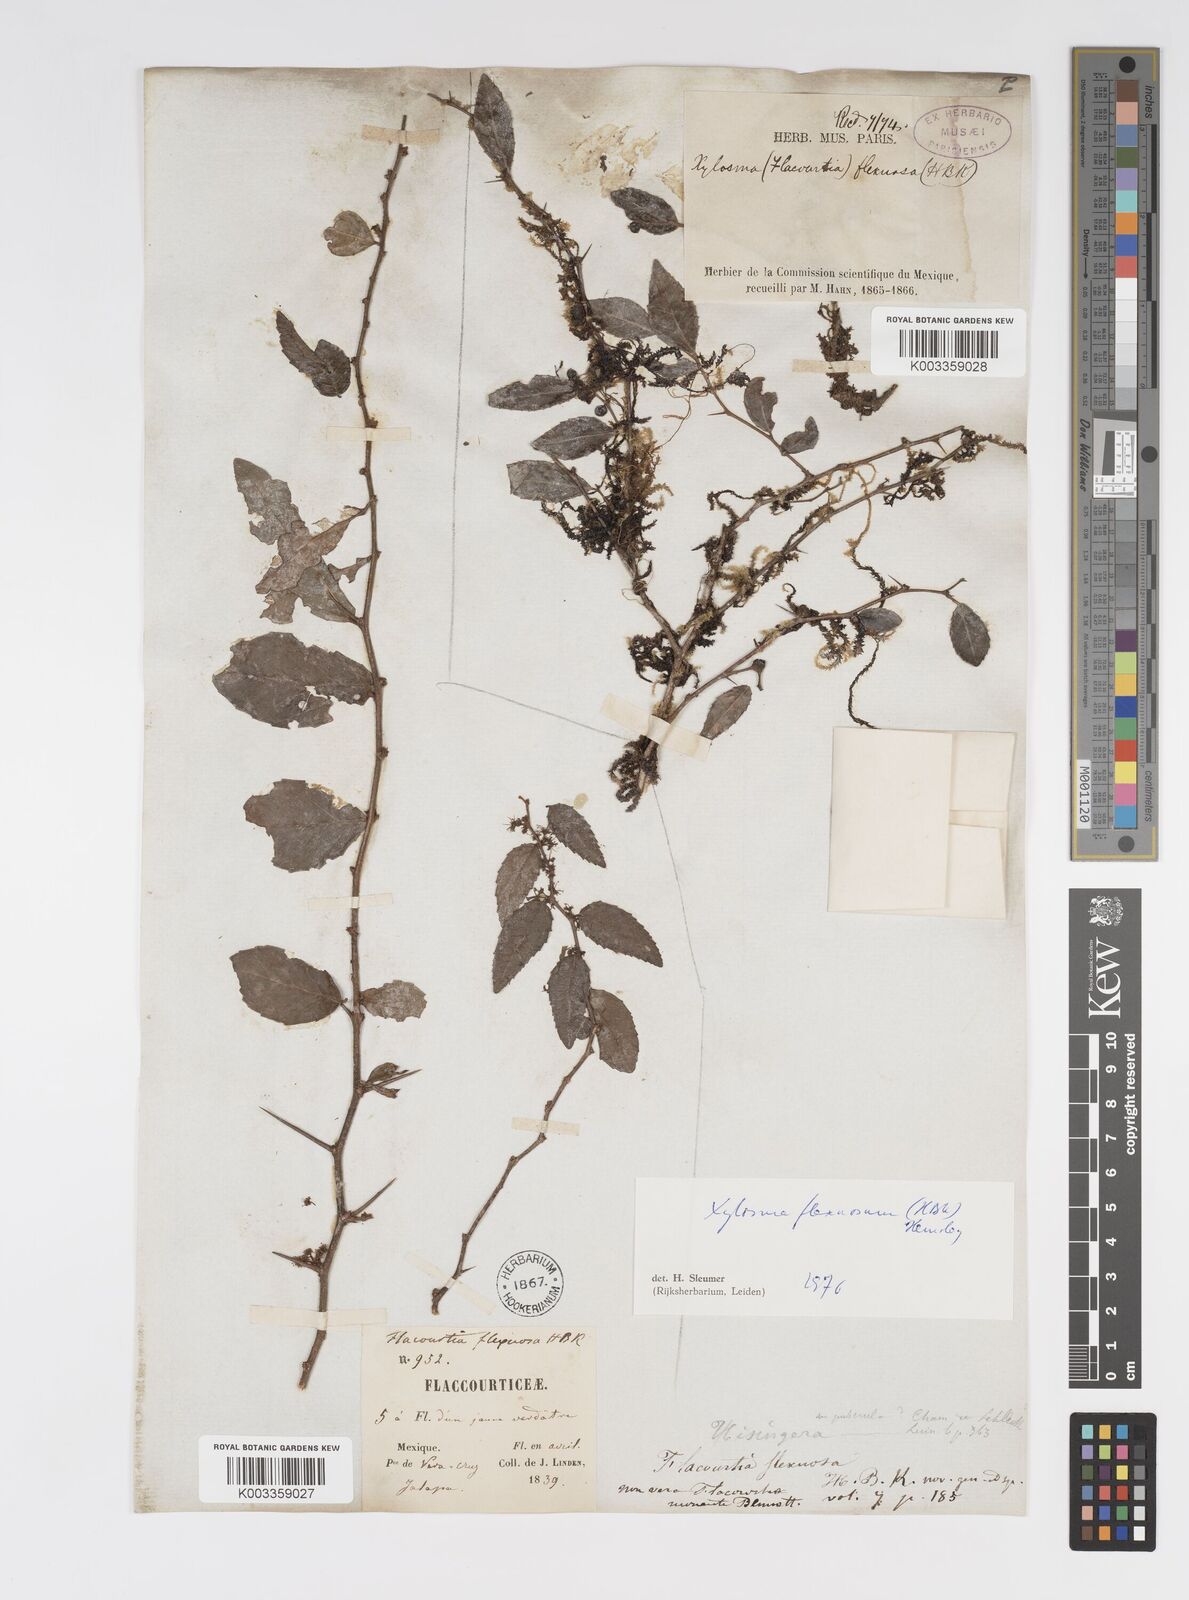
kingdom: Plantae
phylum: Tracheophyta
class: Magnoliopsida
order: Malpighiales
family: Salicaceae
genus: Xylosma
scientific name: Xylosma flexuosa
